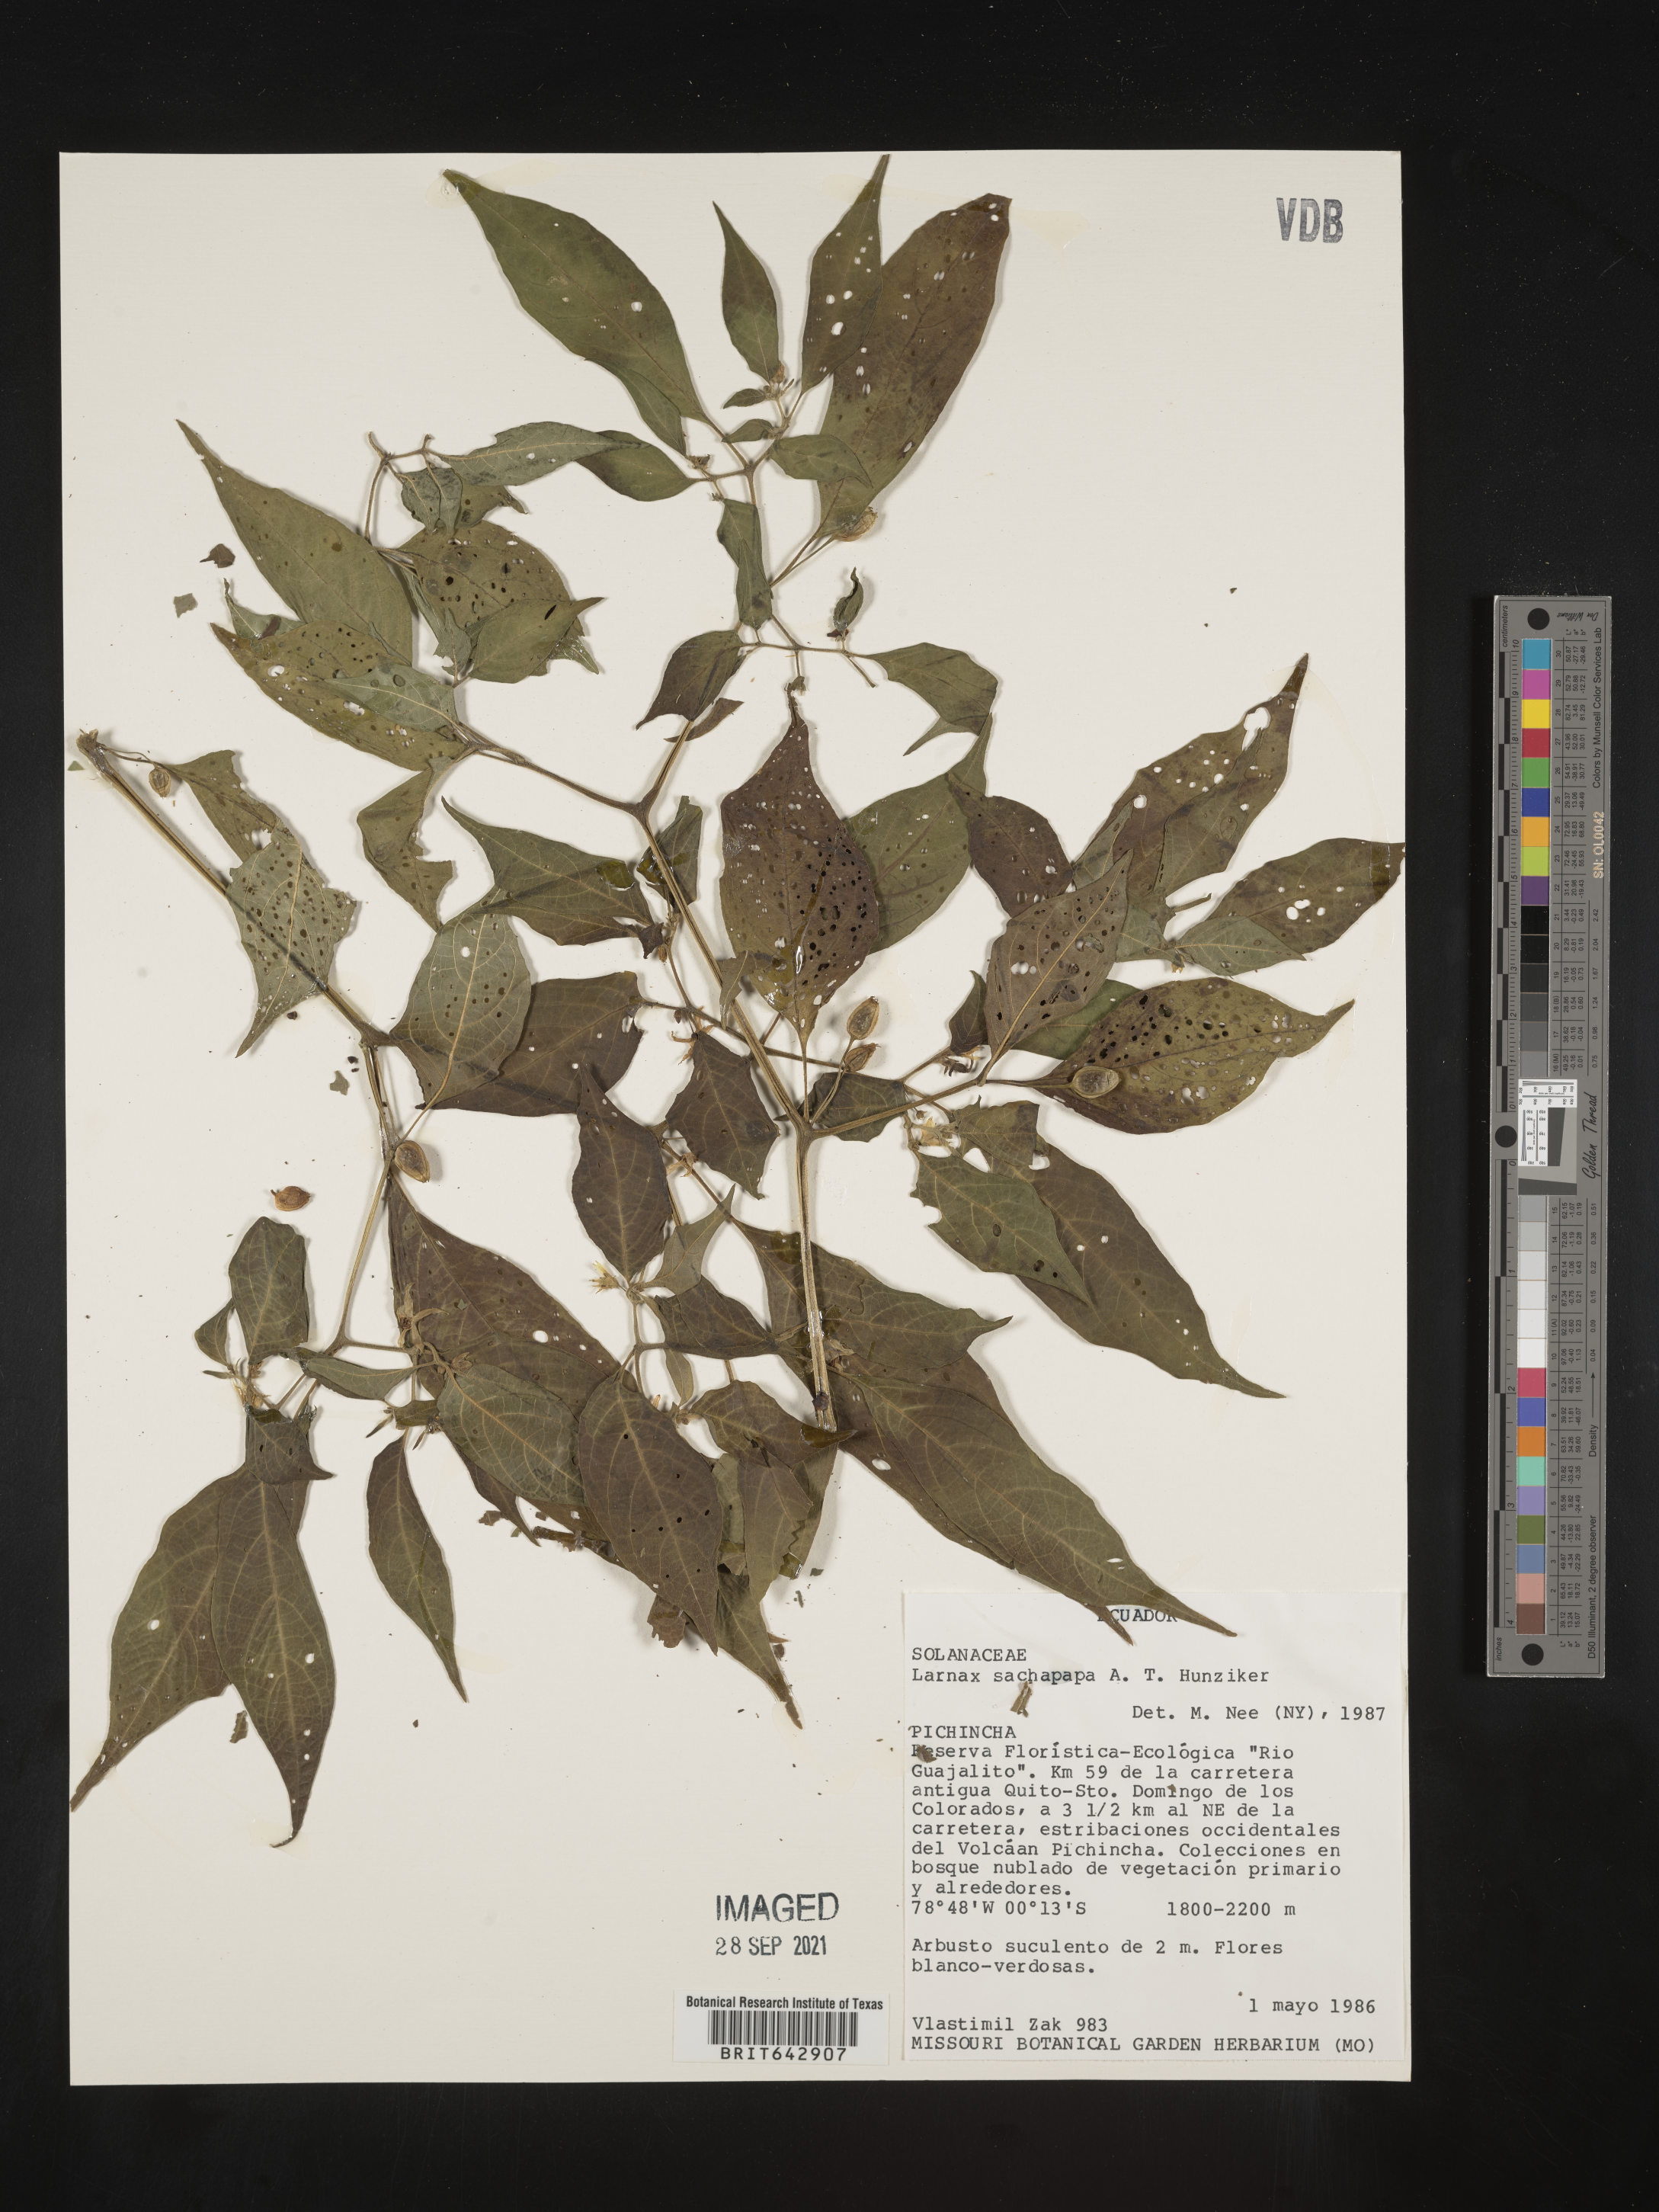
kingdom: Plantae
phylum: Tracheophyta
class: Magnoliopsida
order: Solanales
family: Solanaceae
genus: Deprea
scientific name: Deprea
